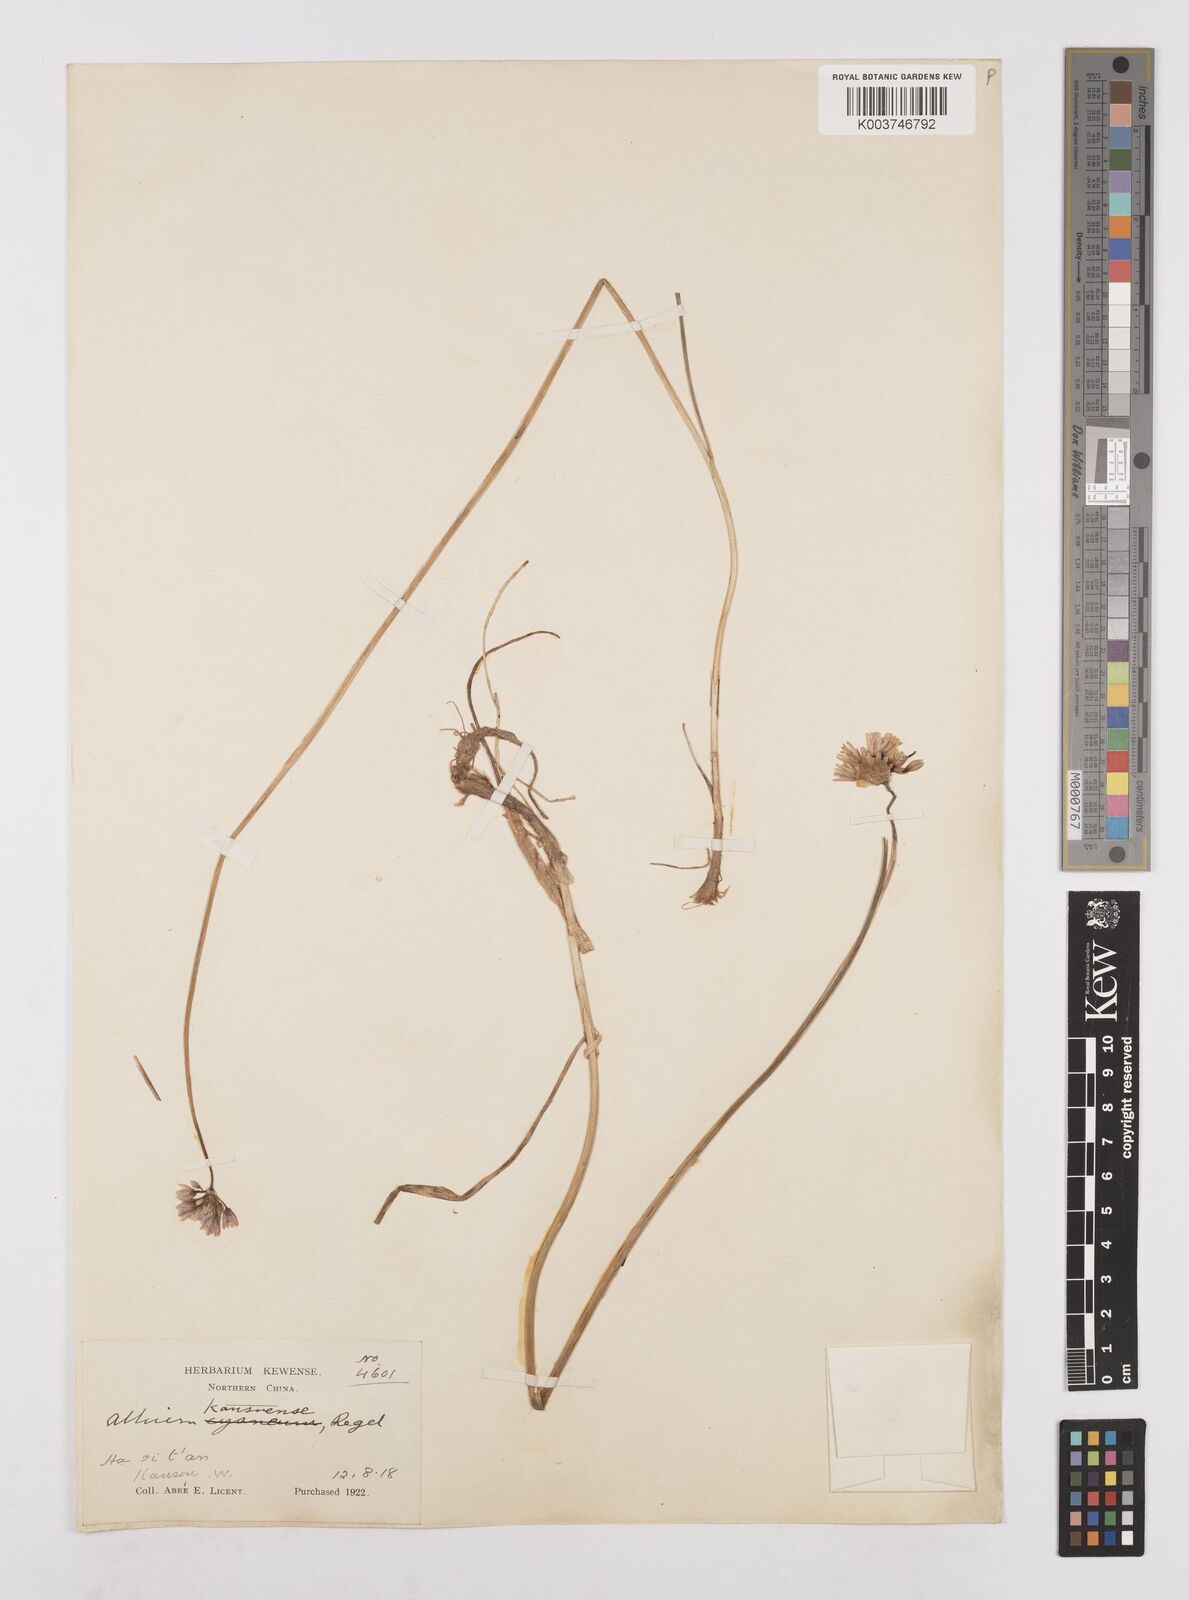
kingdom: Plantae
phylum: Tracheophyta
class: Liliopsida
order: Asparagales
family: Amaryllidaceae
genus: Allium
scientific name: Allium sikkimense
